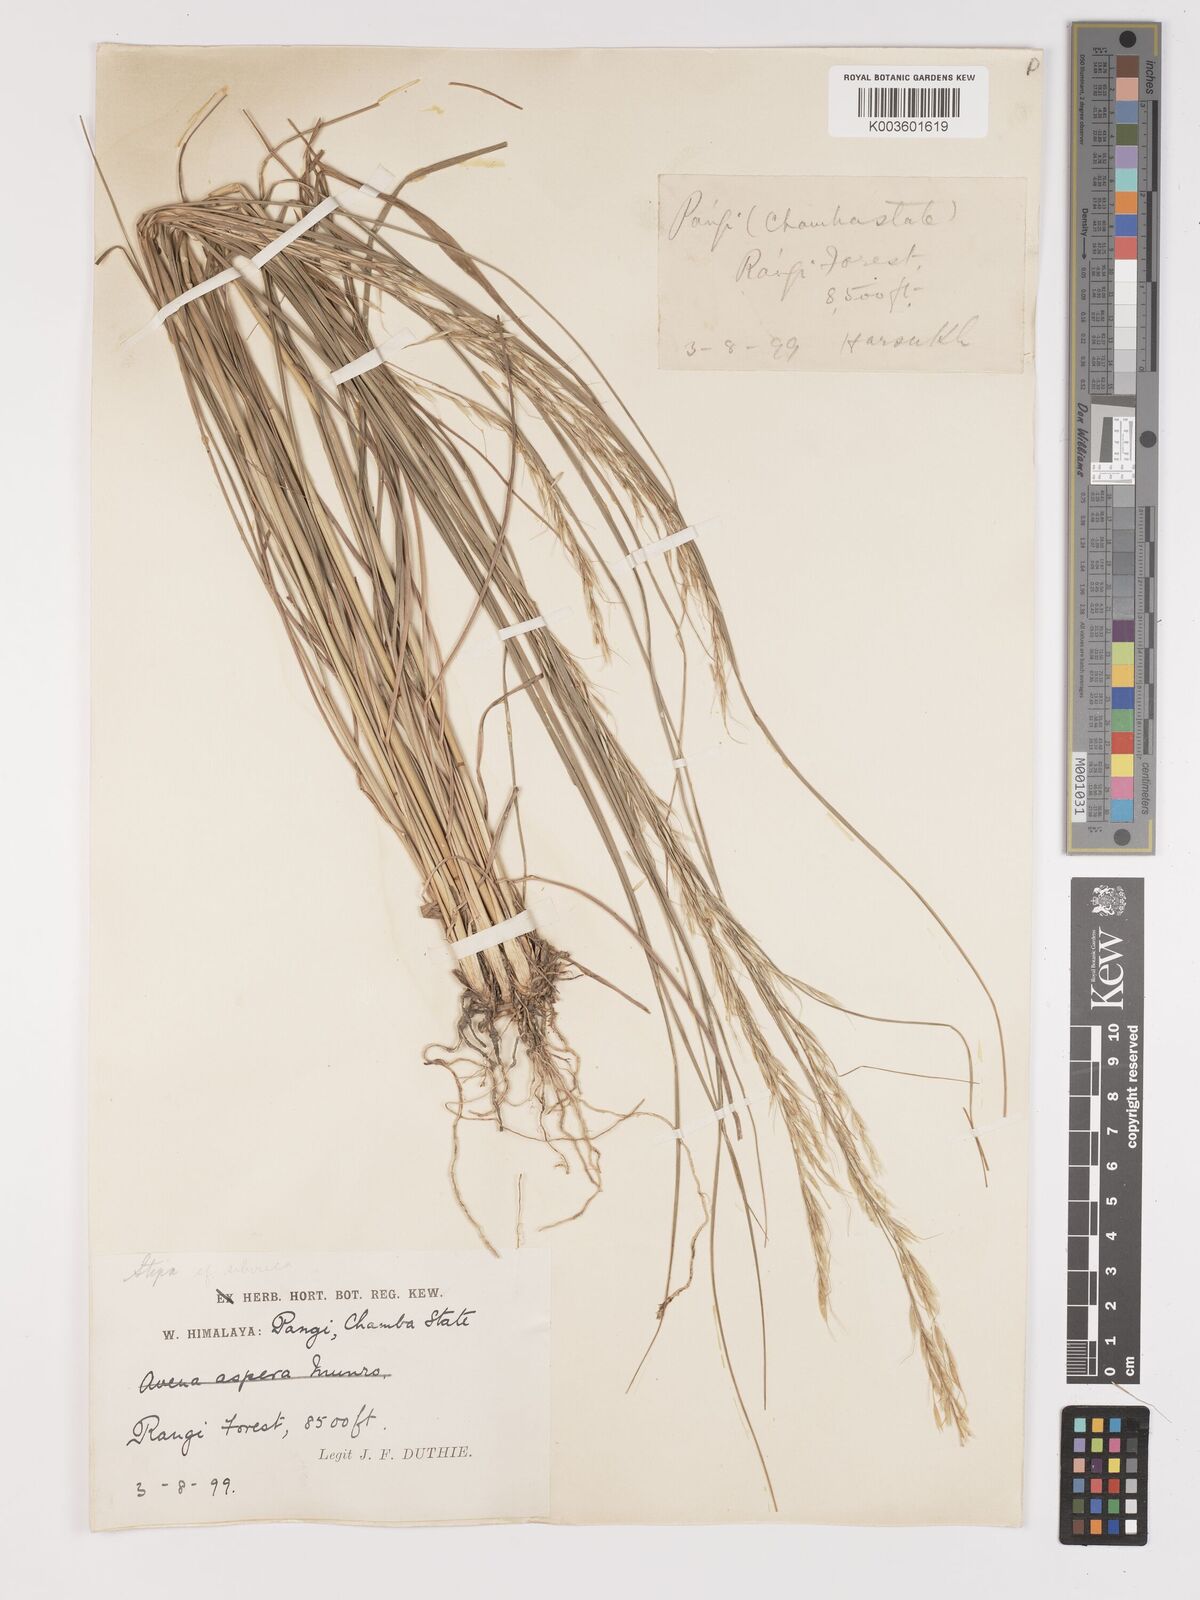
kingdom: Plantae
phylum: Tracheophyta
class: Liliopsida
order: Poales
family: Poaceae
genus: Achnatherum
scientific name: Achnatherum brandisii
